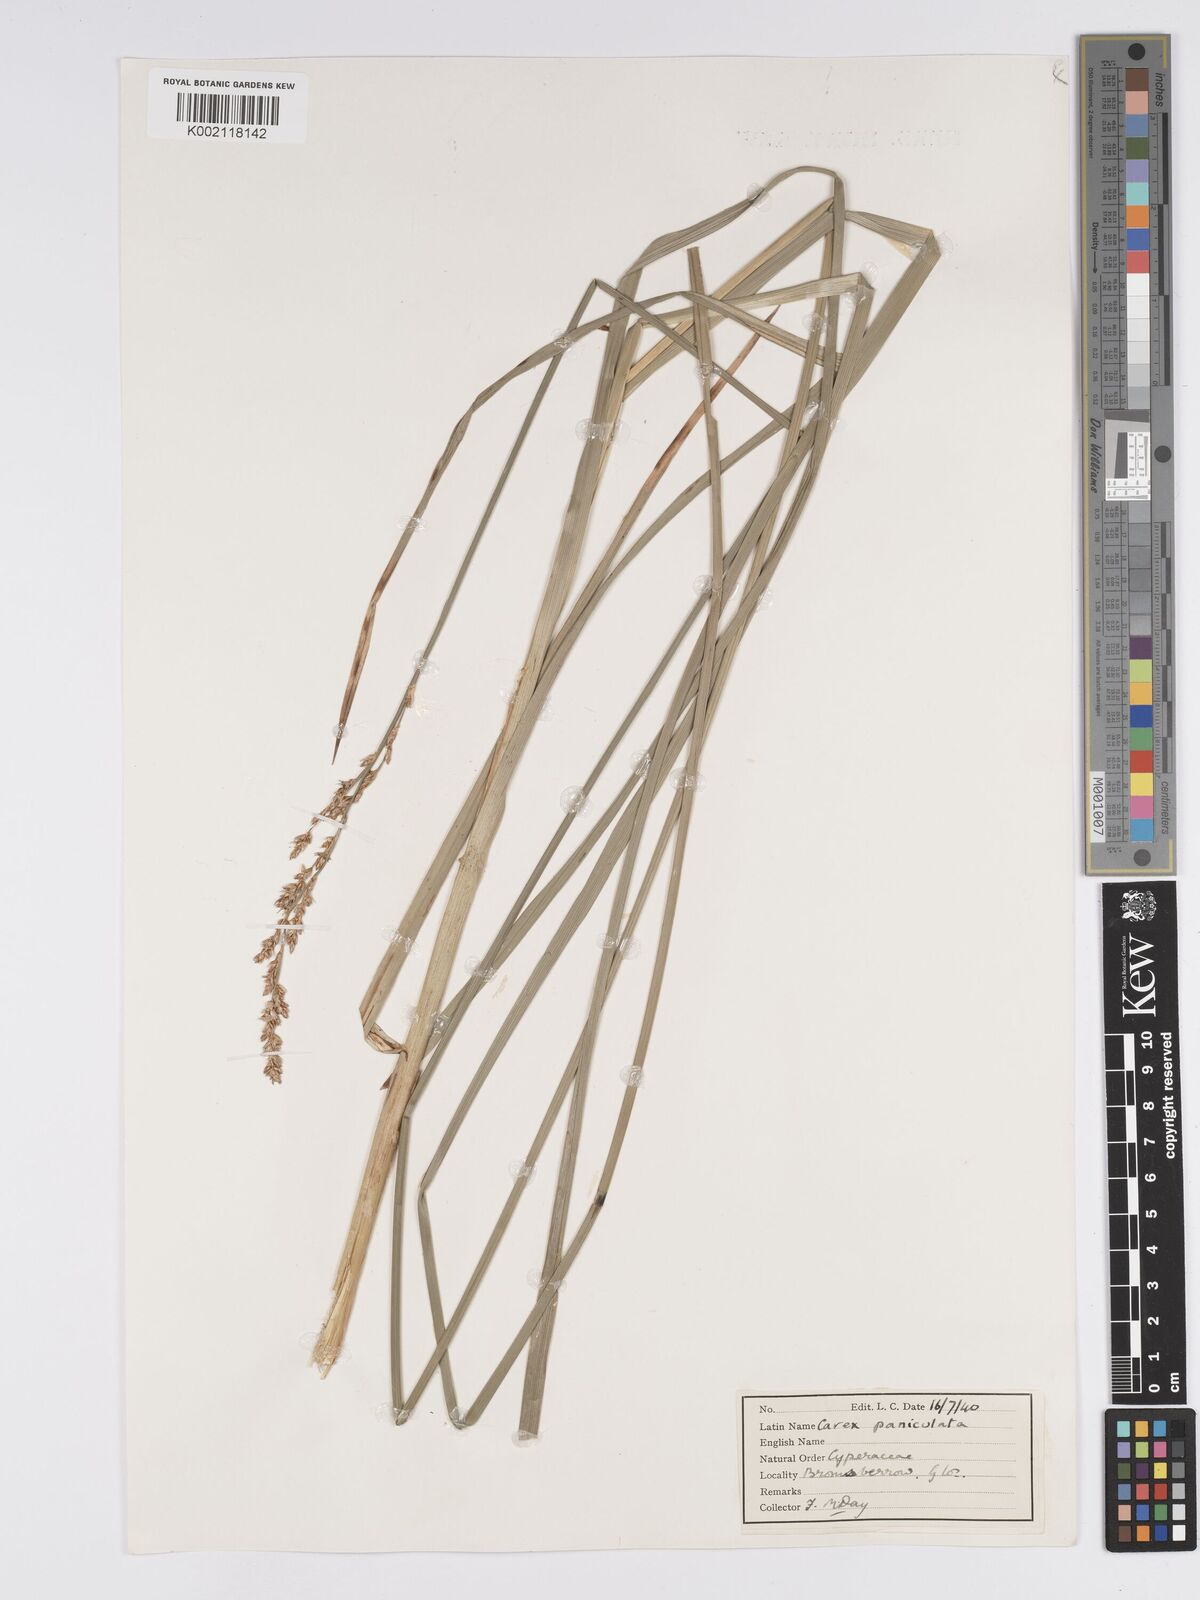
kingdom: Plantae
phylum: Tracheophyta
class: Liliopsida
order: Poales
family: Cyperaceae
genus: Carex
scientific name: Carex paniculata
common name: Greater tussock-sedge
